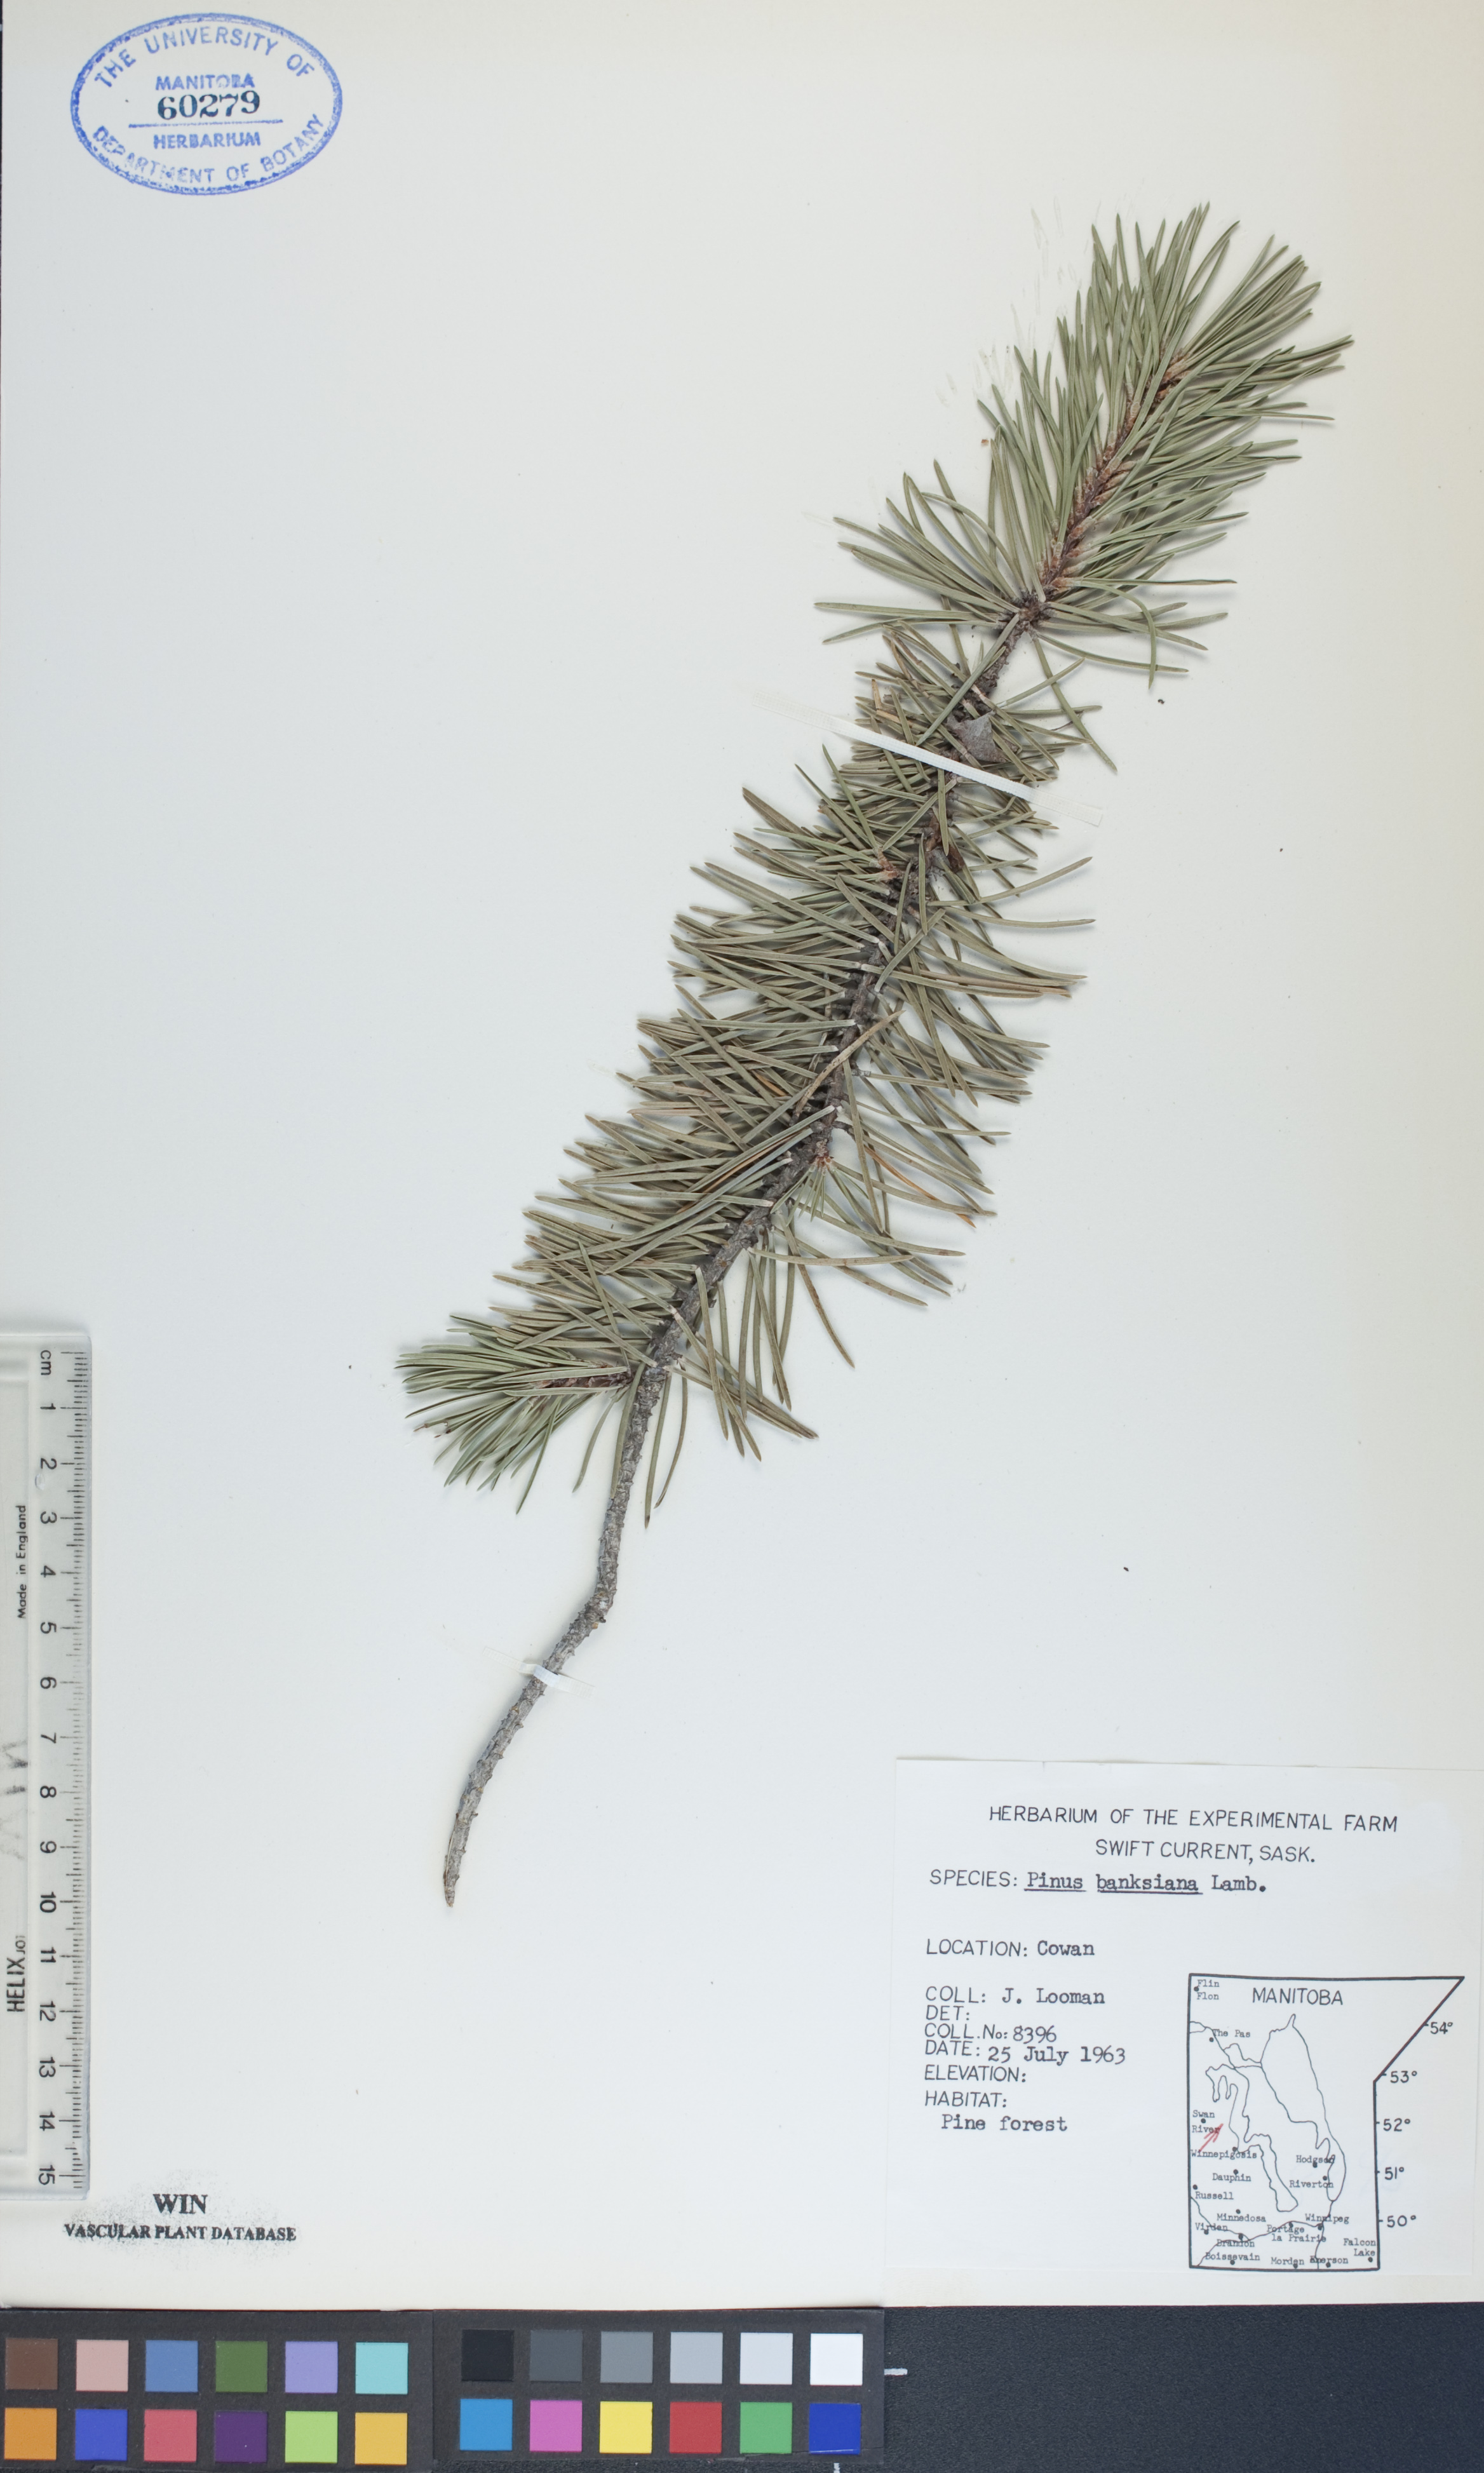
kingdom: Plantae
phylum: Tracheophyta
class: Pinopsida
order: Pinales
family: Pinaceae
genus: Pinus
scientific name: Pinus banksiana
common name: Jack pine
